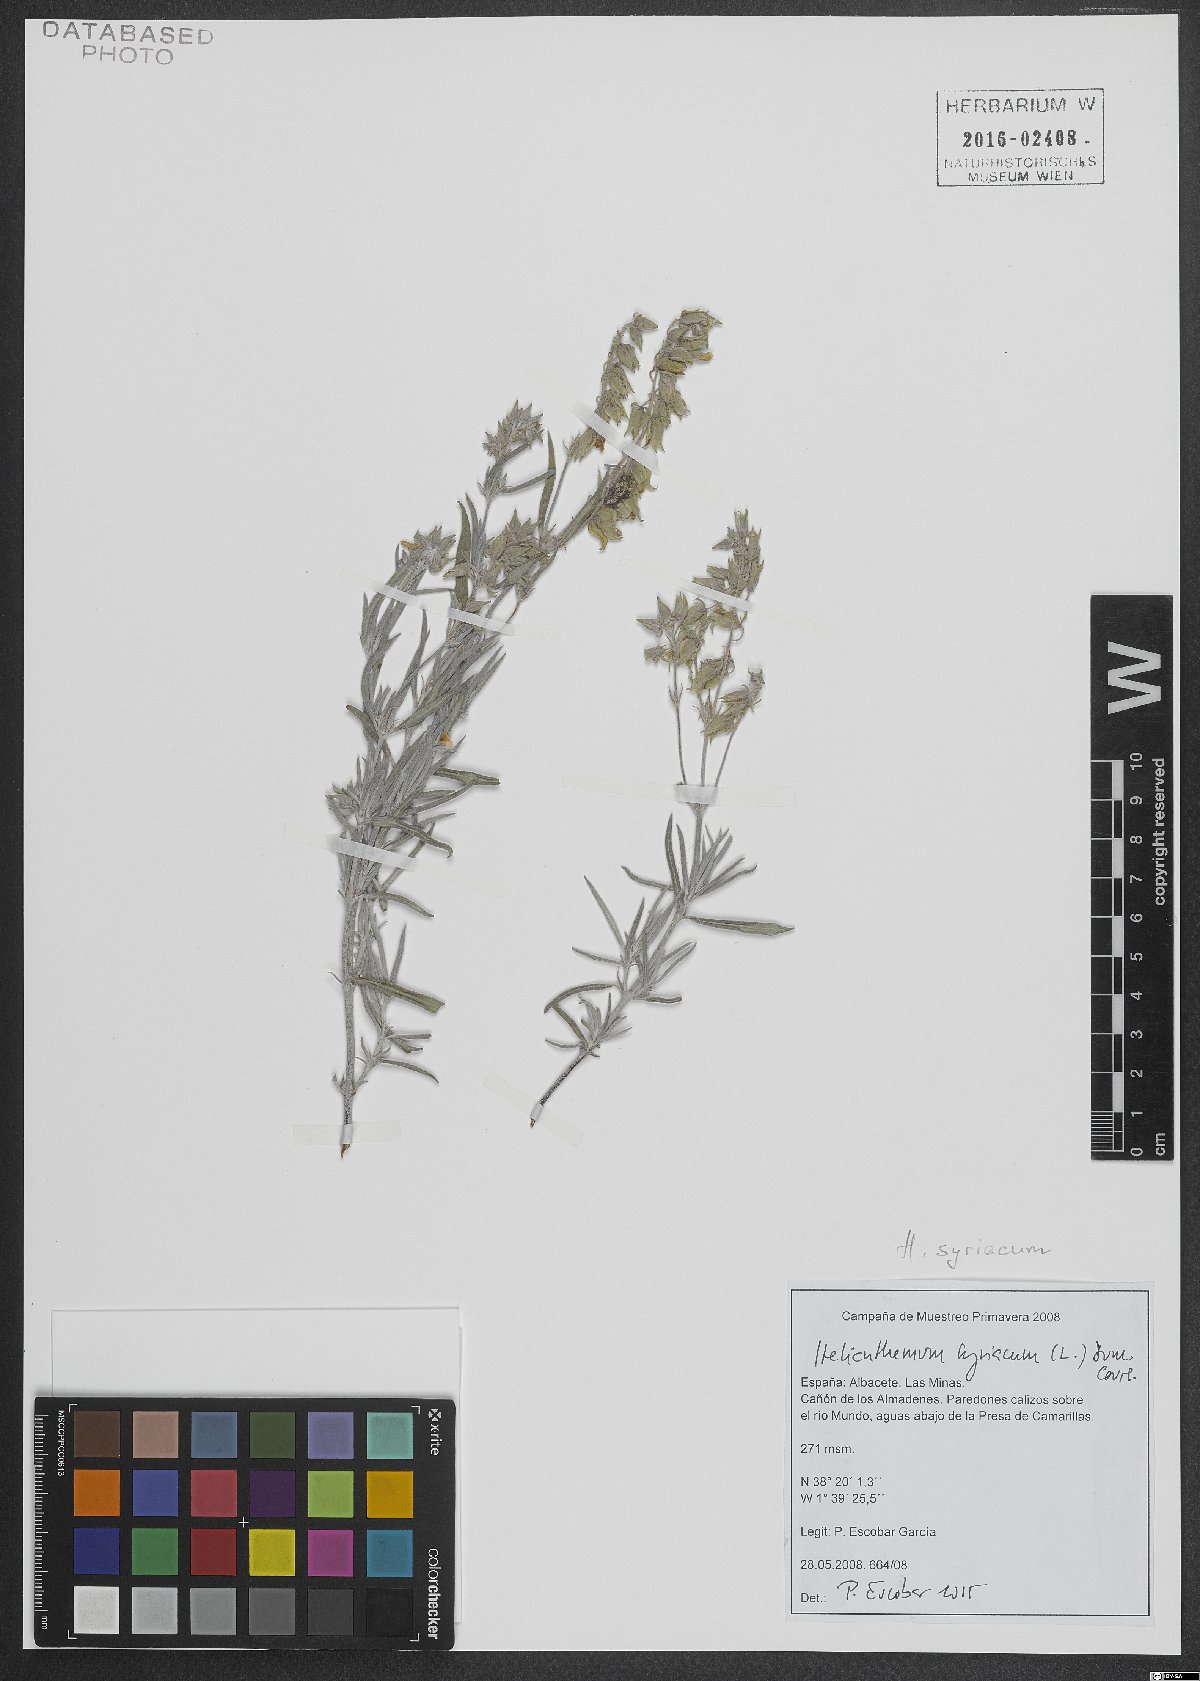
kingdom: Plantae
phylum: Tracheophyta
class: Magnoliopsida
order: Malvales
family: Cistaceae
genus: Helianthemum
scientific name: Helianthemum syriacum
